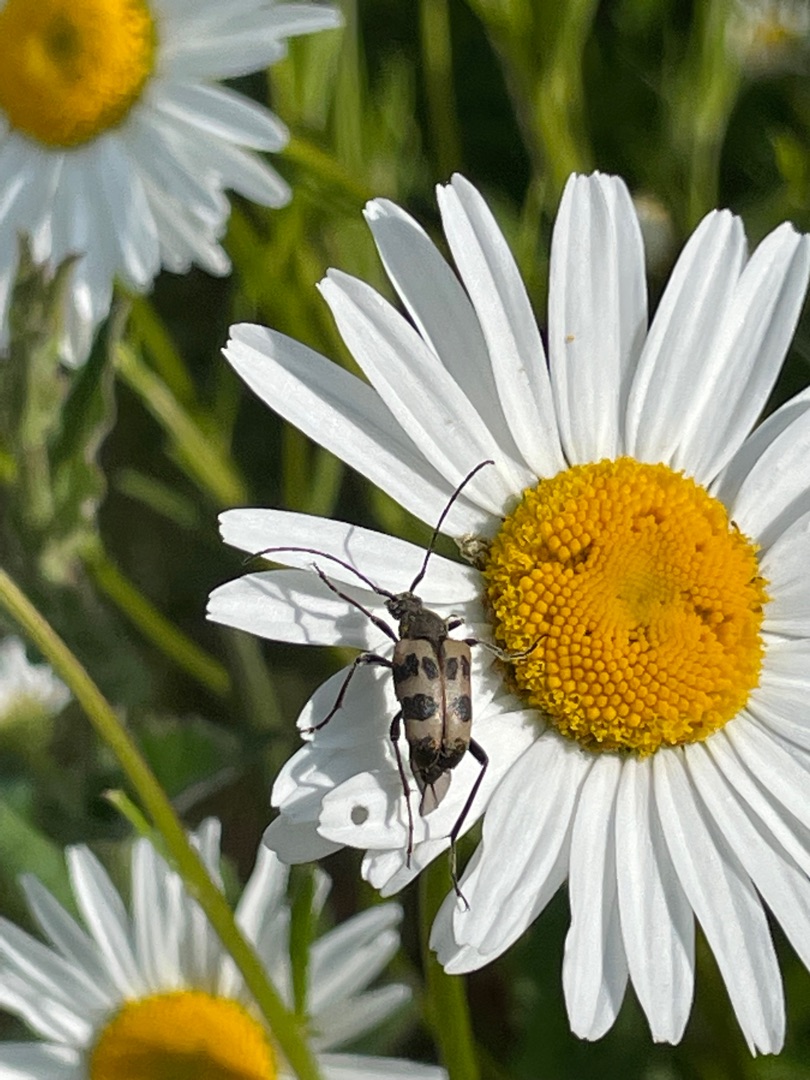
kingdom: Animalia
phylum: Arthropoda
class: Insecta
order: Coleoptera
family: Cerambycidae
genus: Pachytodes
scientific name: Pachytodes cerambyciformis
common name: Jysk blomsterbuk
